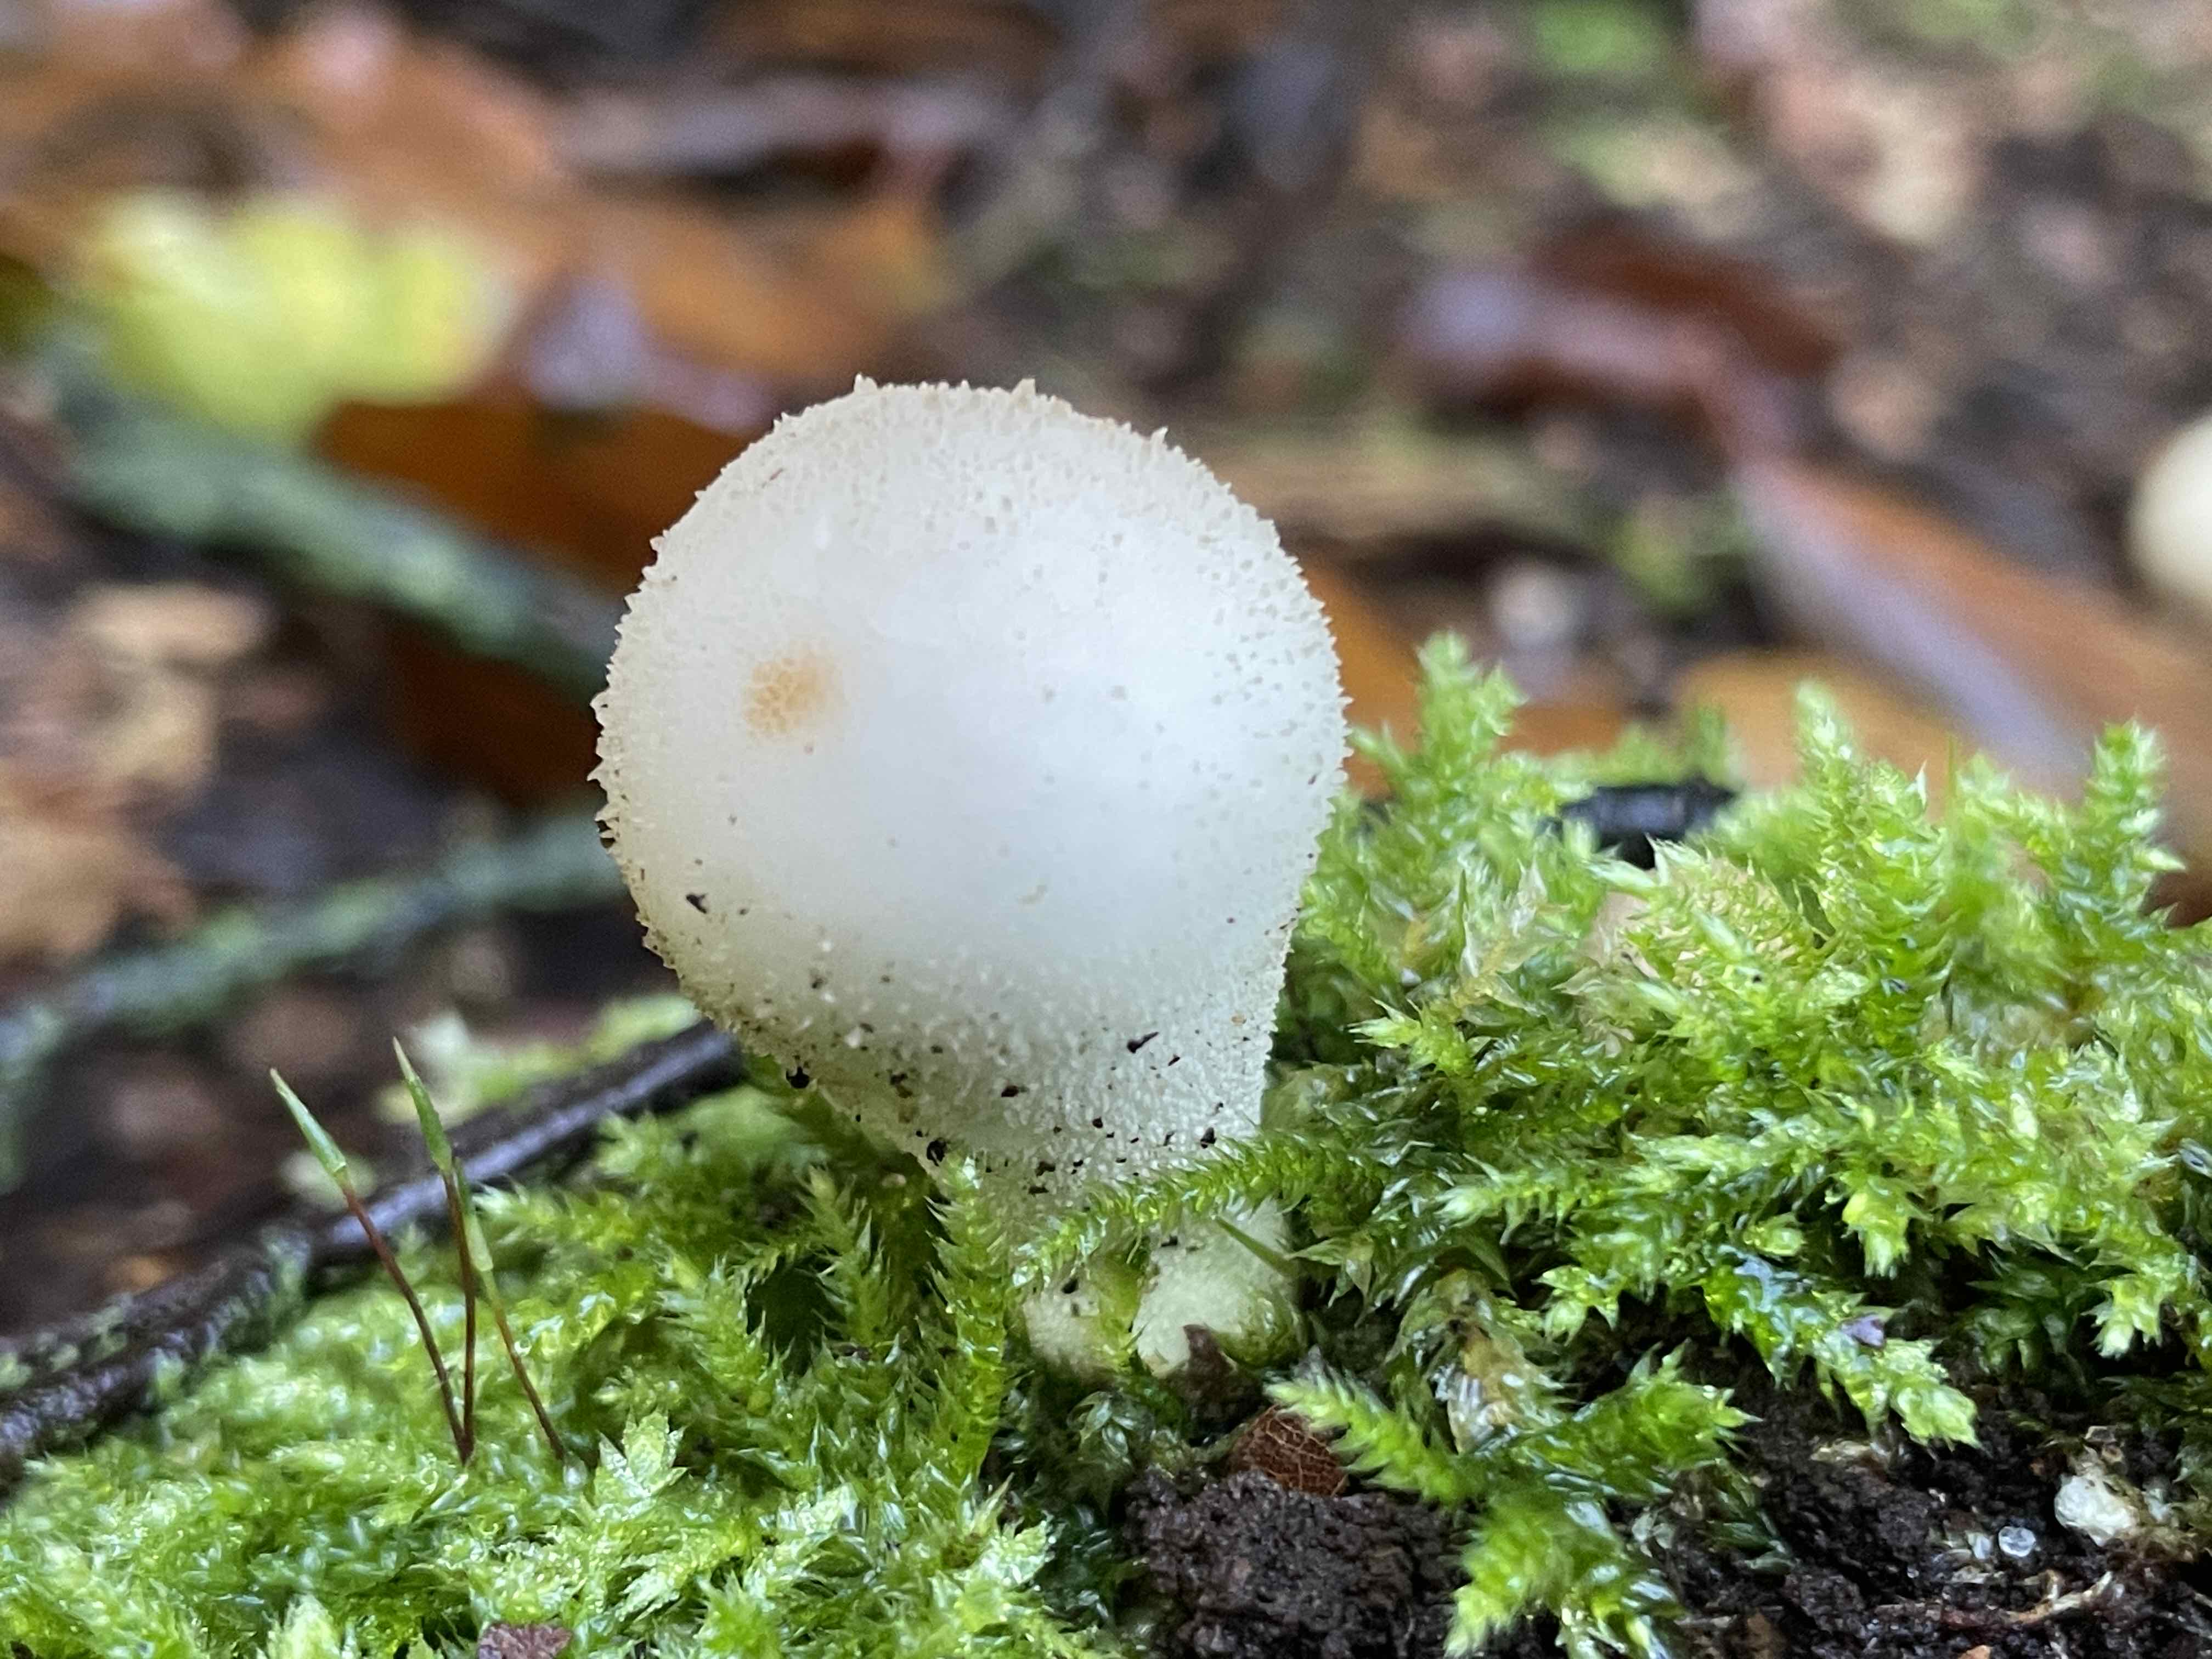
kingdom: Fungi
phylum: Basidiomycota
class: Agaricomycetes
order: Agaricales
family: Lycoperdaceae
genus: Apioperdon
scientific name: Apioperdon pyriforme
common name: pære-støvbold
